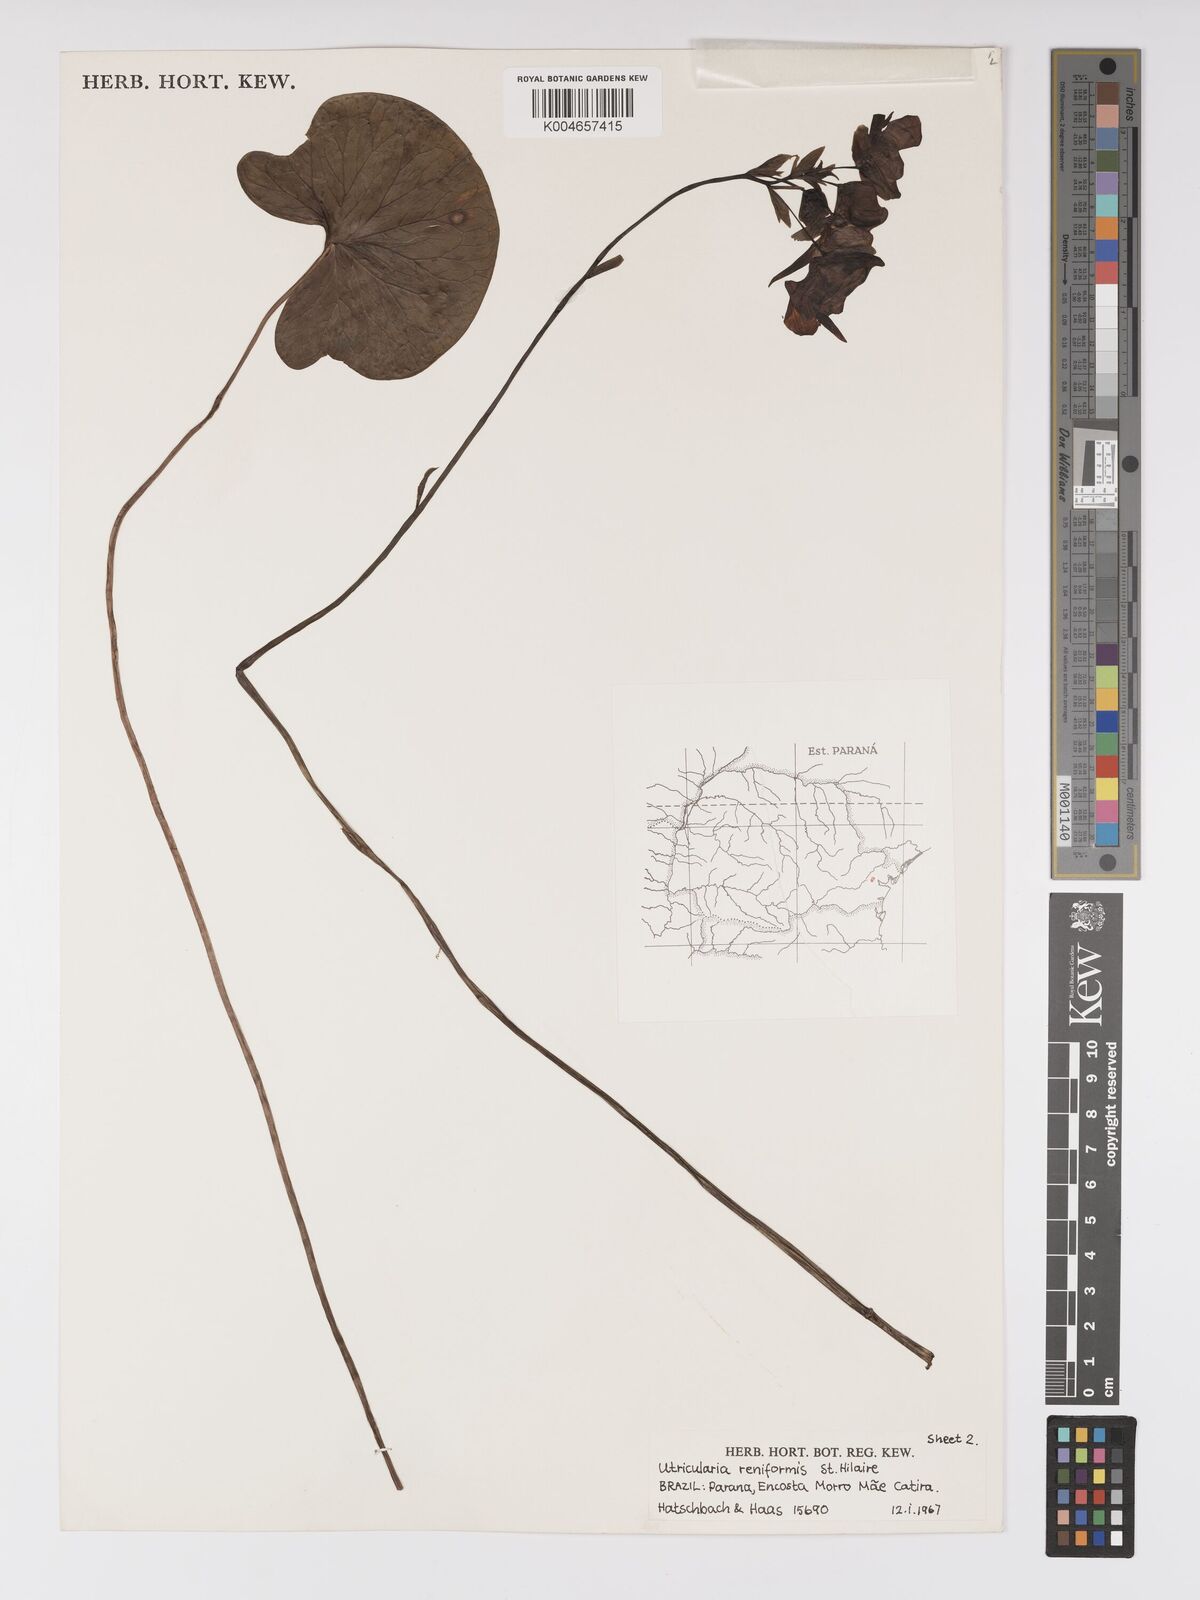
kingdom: Plantae
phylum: Tracheophyta
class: Magnoliopsida
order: Lamiales
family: Lentibulariaceae
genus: Utricularia
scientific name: Utricularia reniformis
